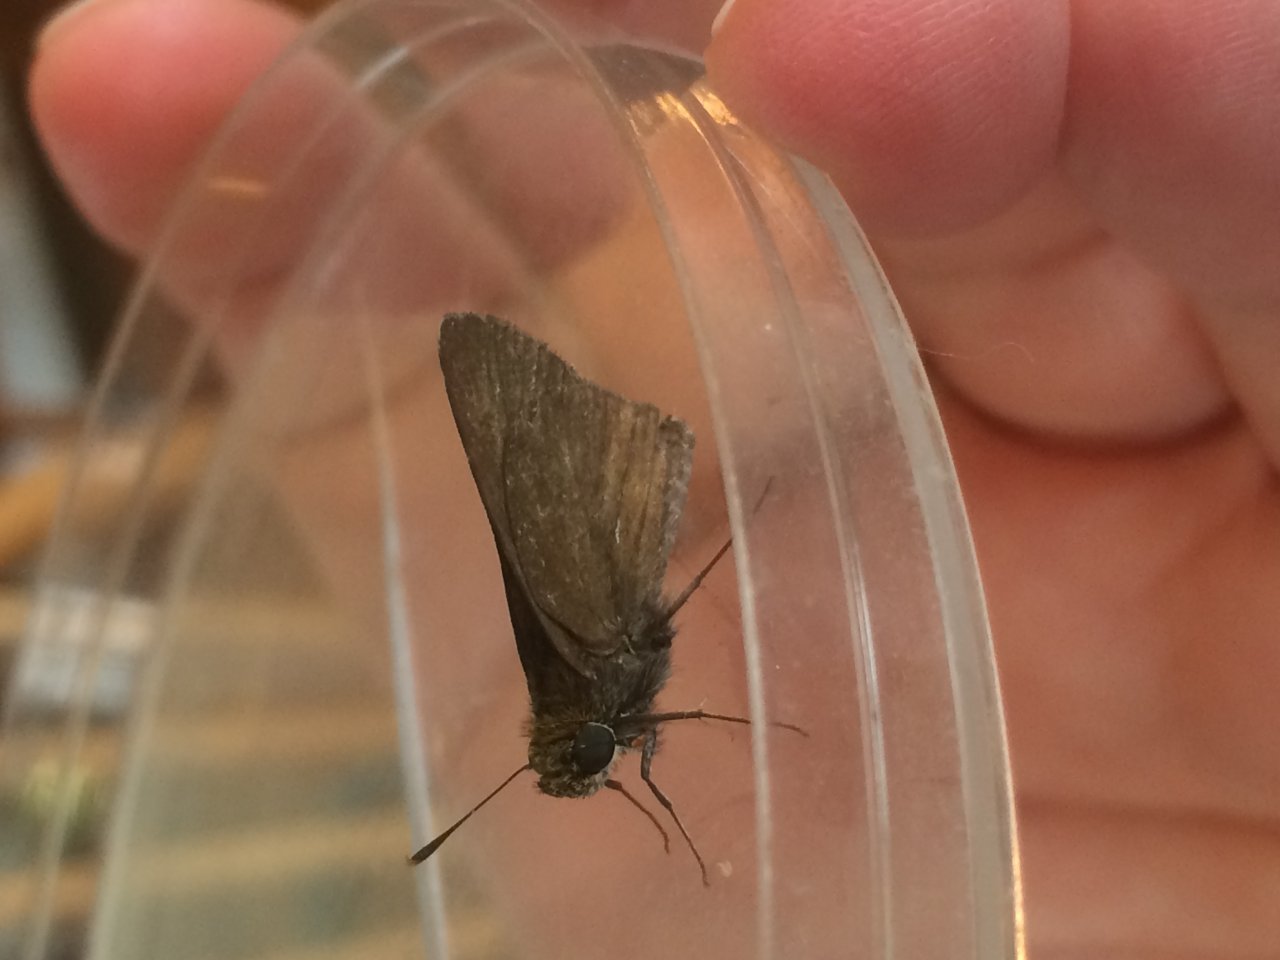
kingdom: Animalia
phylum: Arthropoda
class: Insecta
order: Lepidoptera
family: Hesperiidae
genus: Euphyes
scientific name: Euphyes vestris
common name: Dun Skipper
